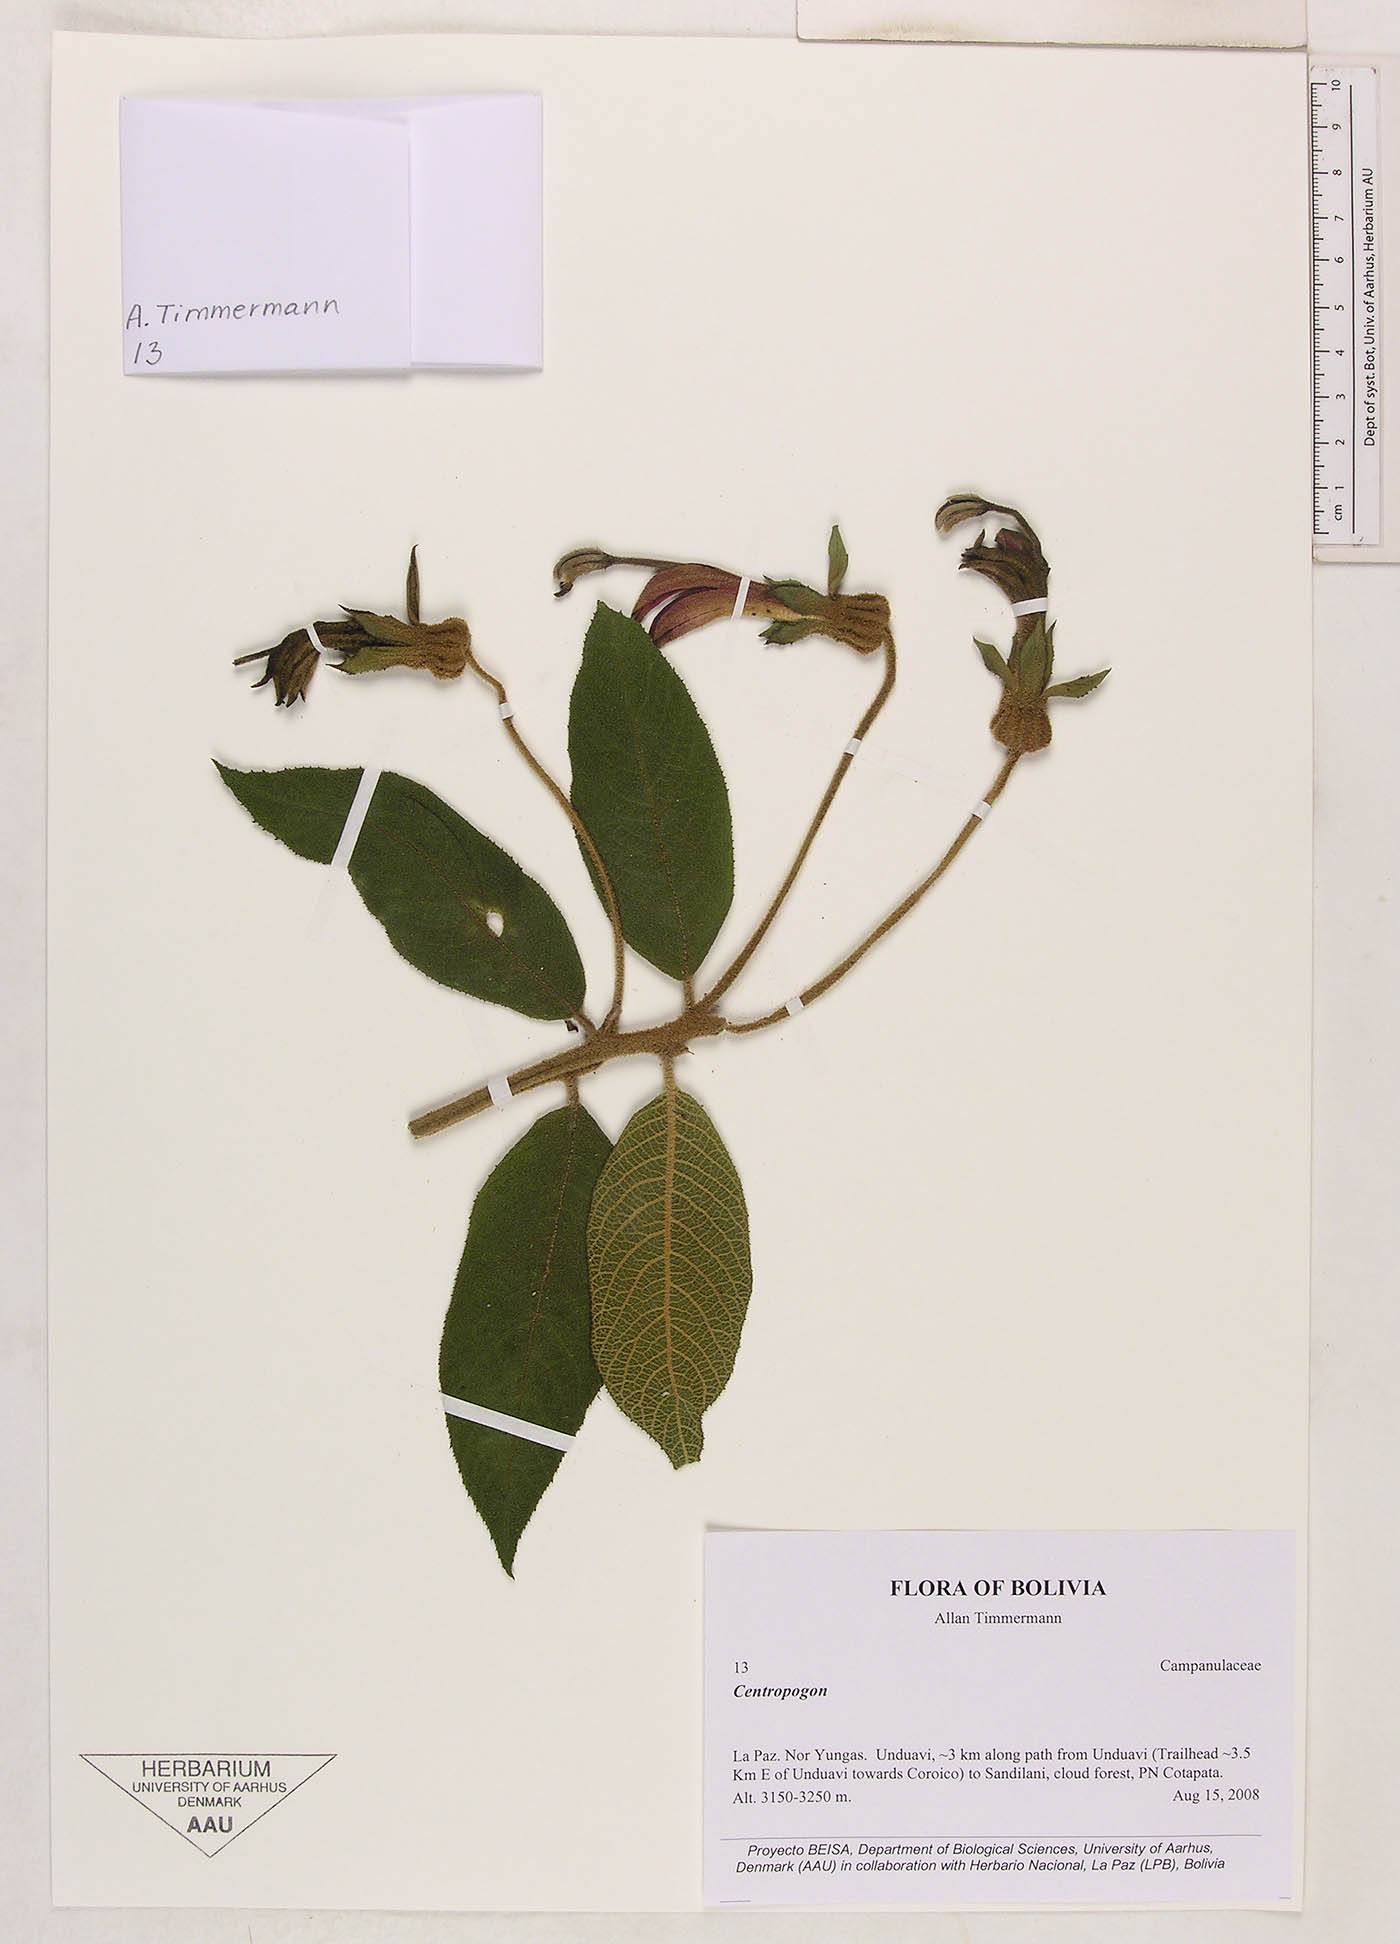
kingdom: Plantae
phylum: Tracheophyta
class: Magnoliopsida
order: Asterales
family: Campanulaceae
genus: Centropogon
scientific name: Centropogon
